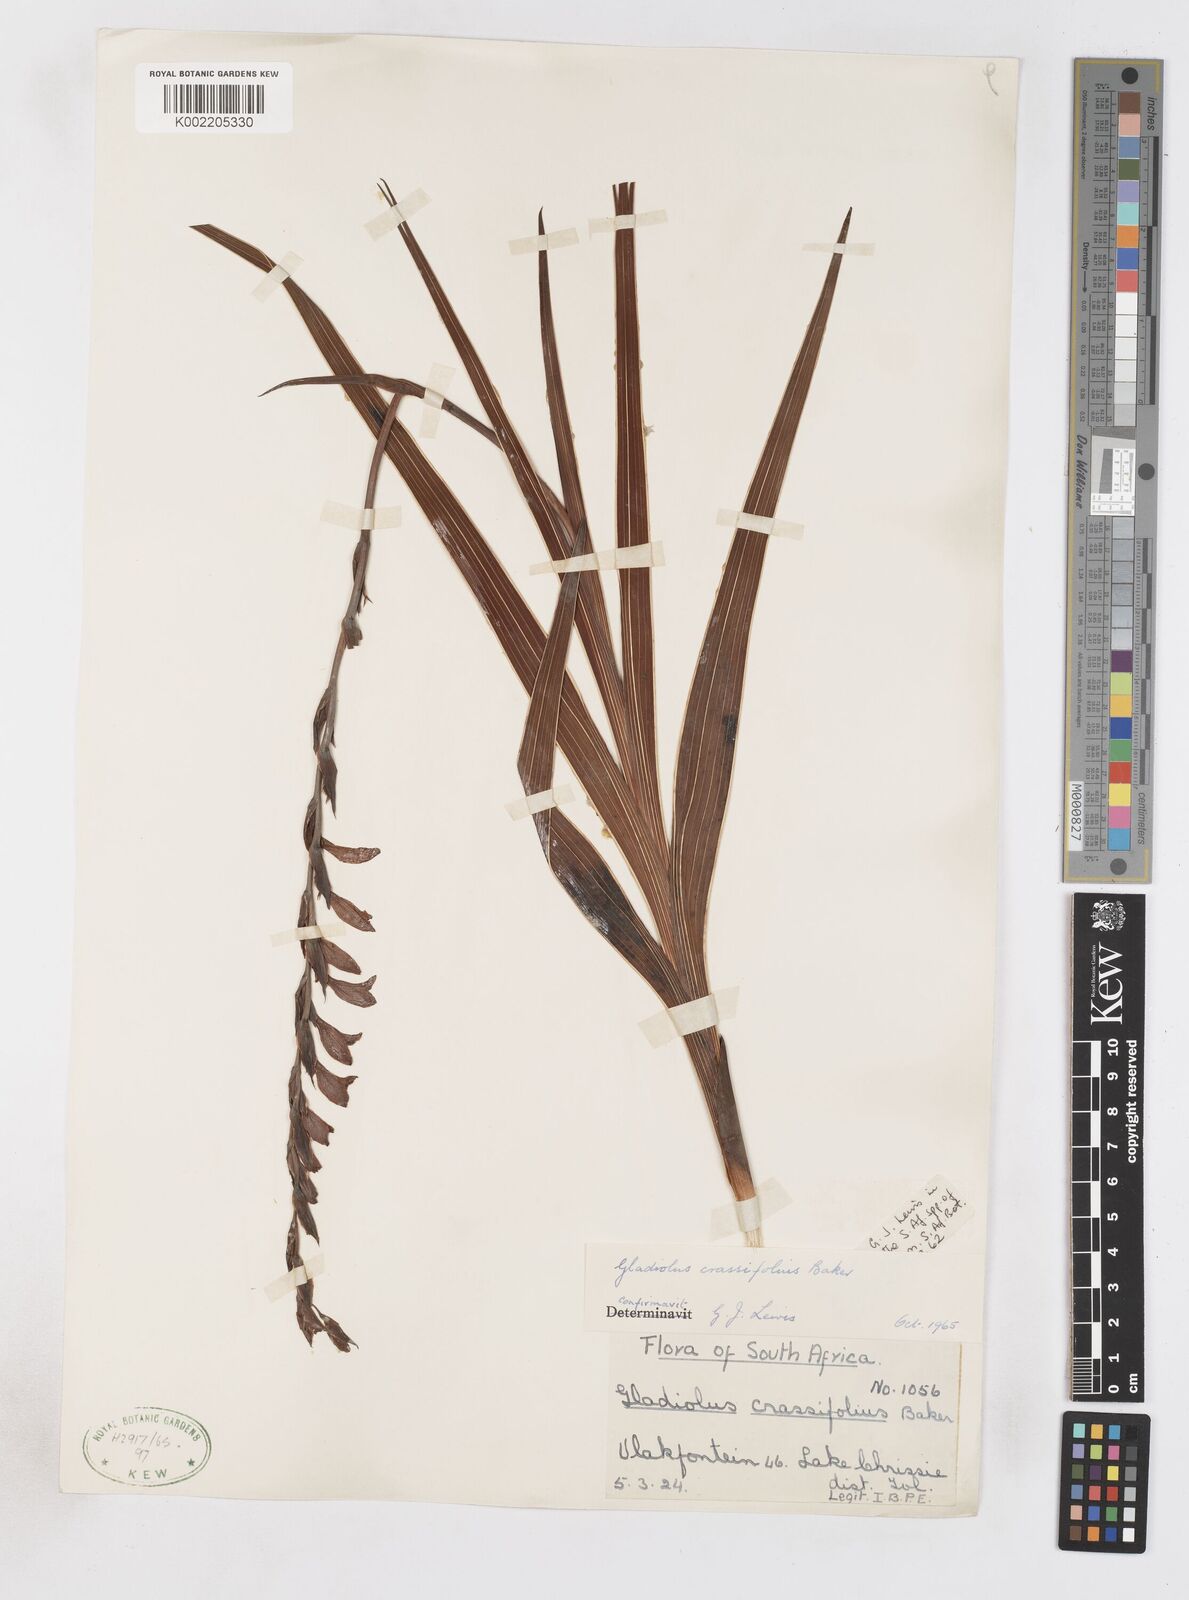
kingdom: Plantae
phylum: Tracheophyta
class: Liliopsida
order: Asparagales
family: Iridaceae
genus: Gladiolus
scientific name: Gladiolus crassifolius
